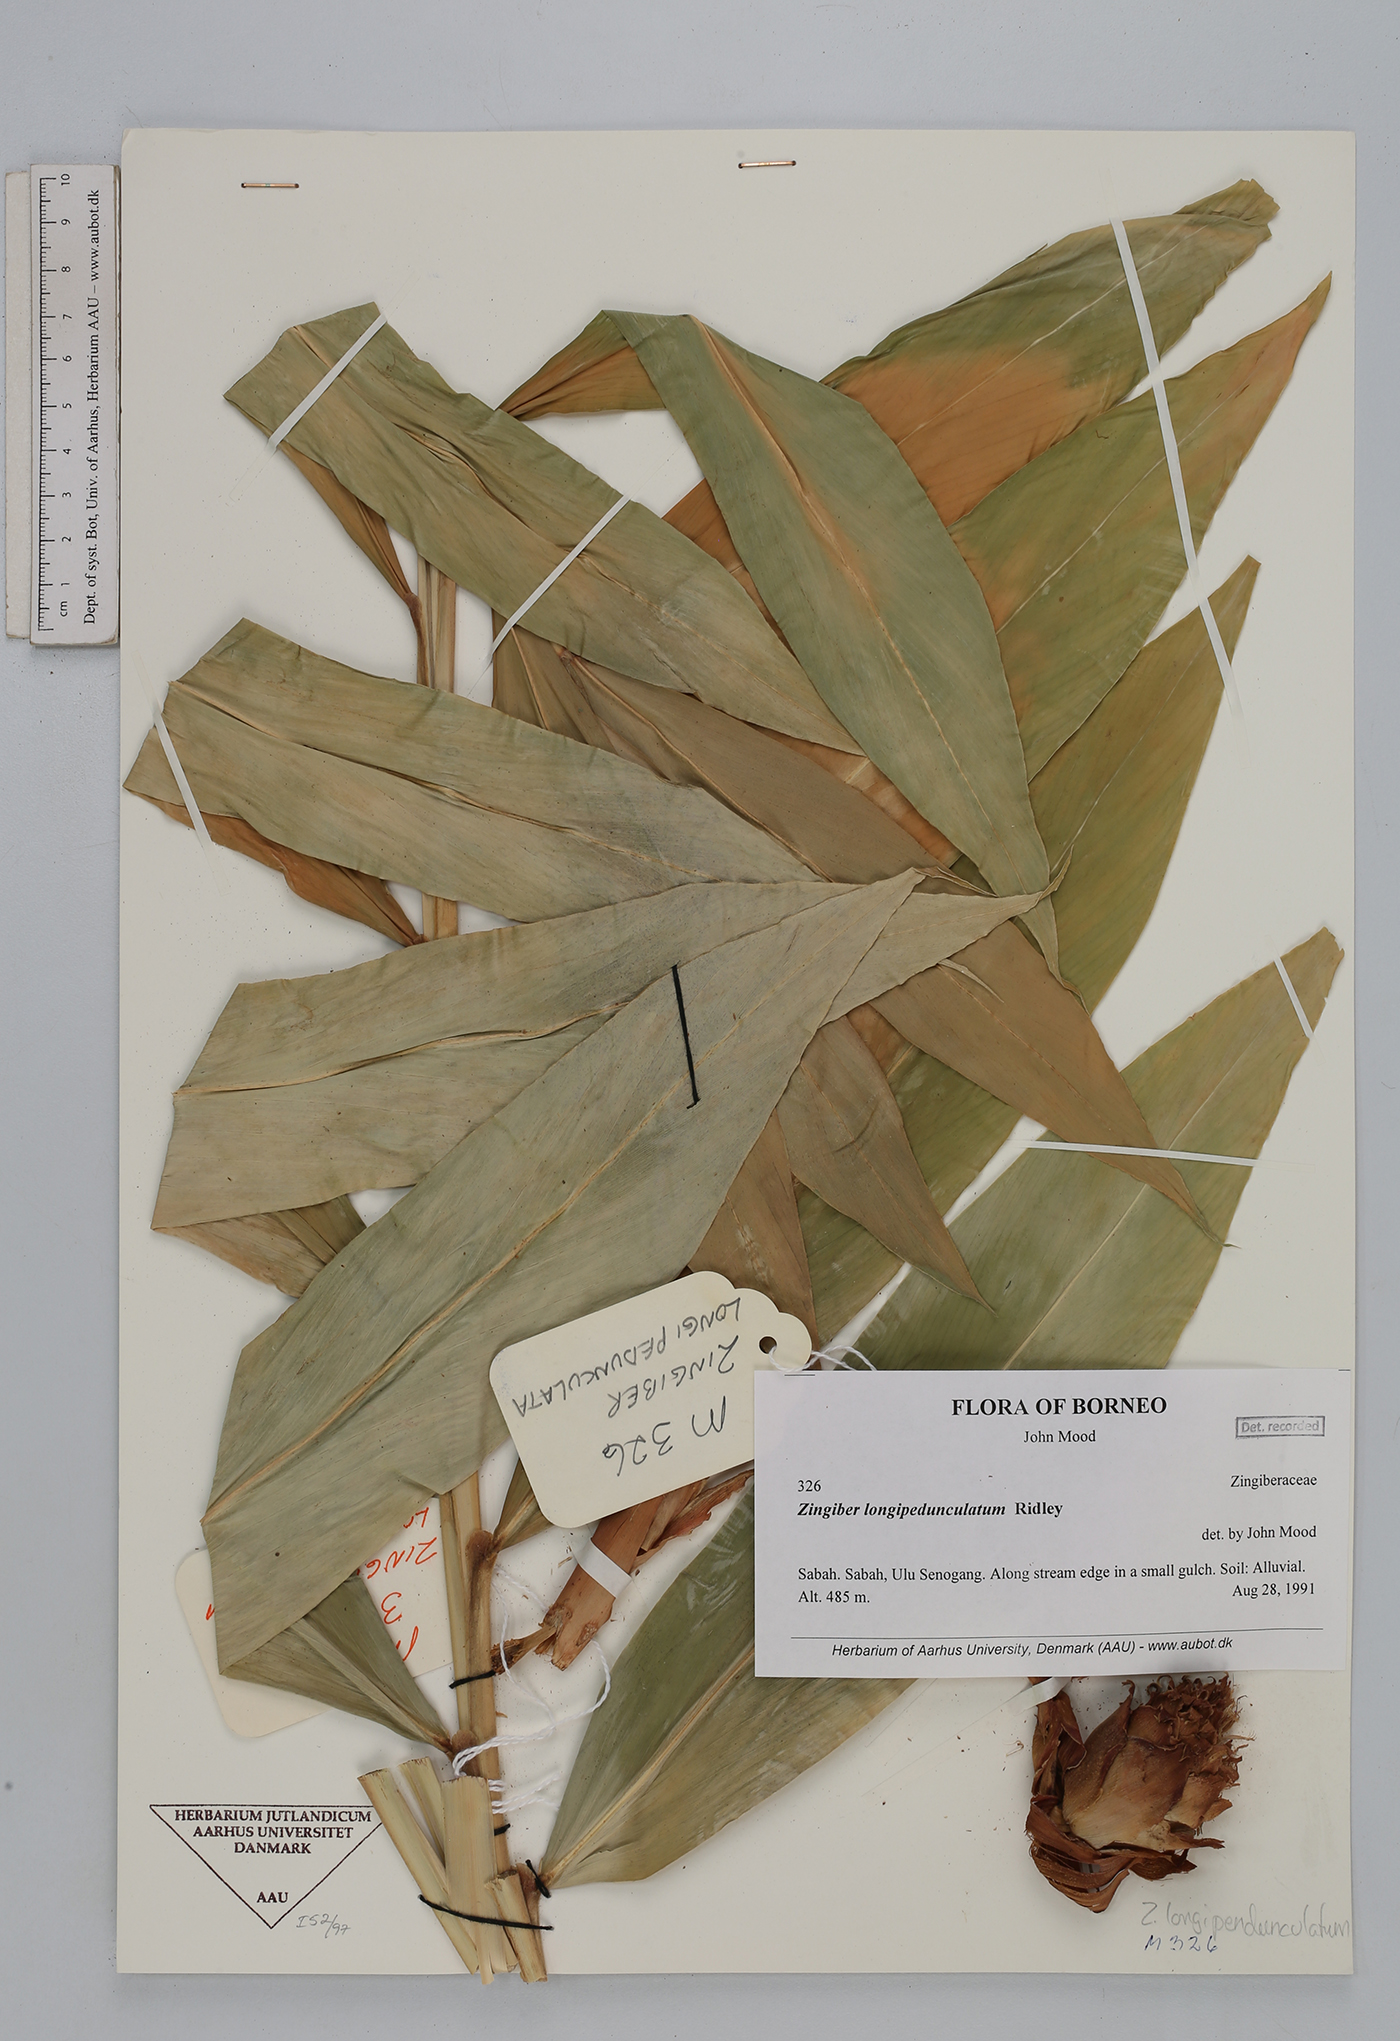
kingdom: Plantae
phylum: Tracheophyta
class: Liliopsida
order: Zingiberales
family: Zingiberaceae
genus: Zingiber
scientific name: Zingiber longipedunculatum
